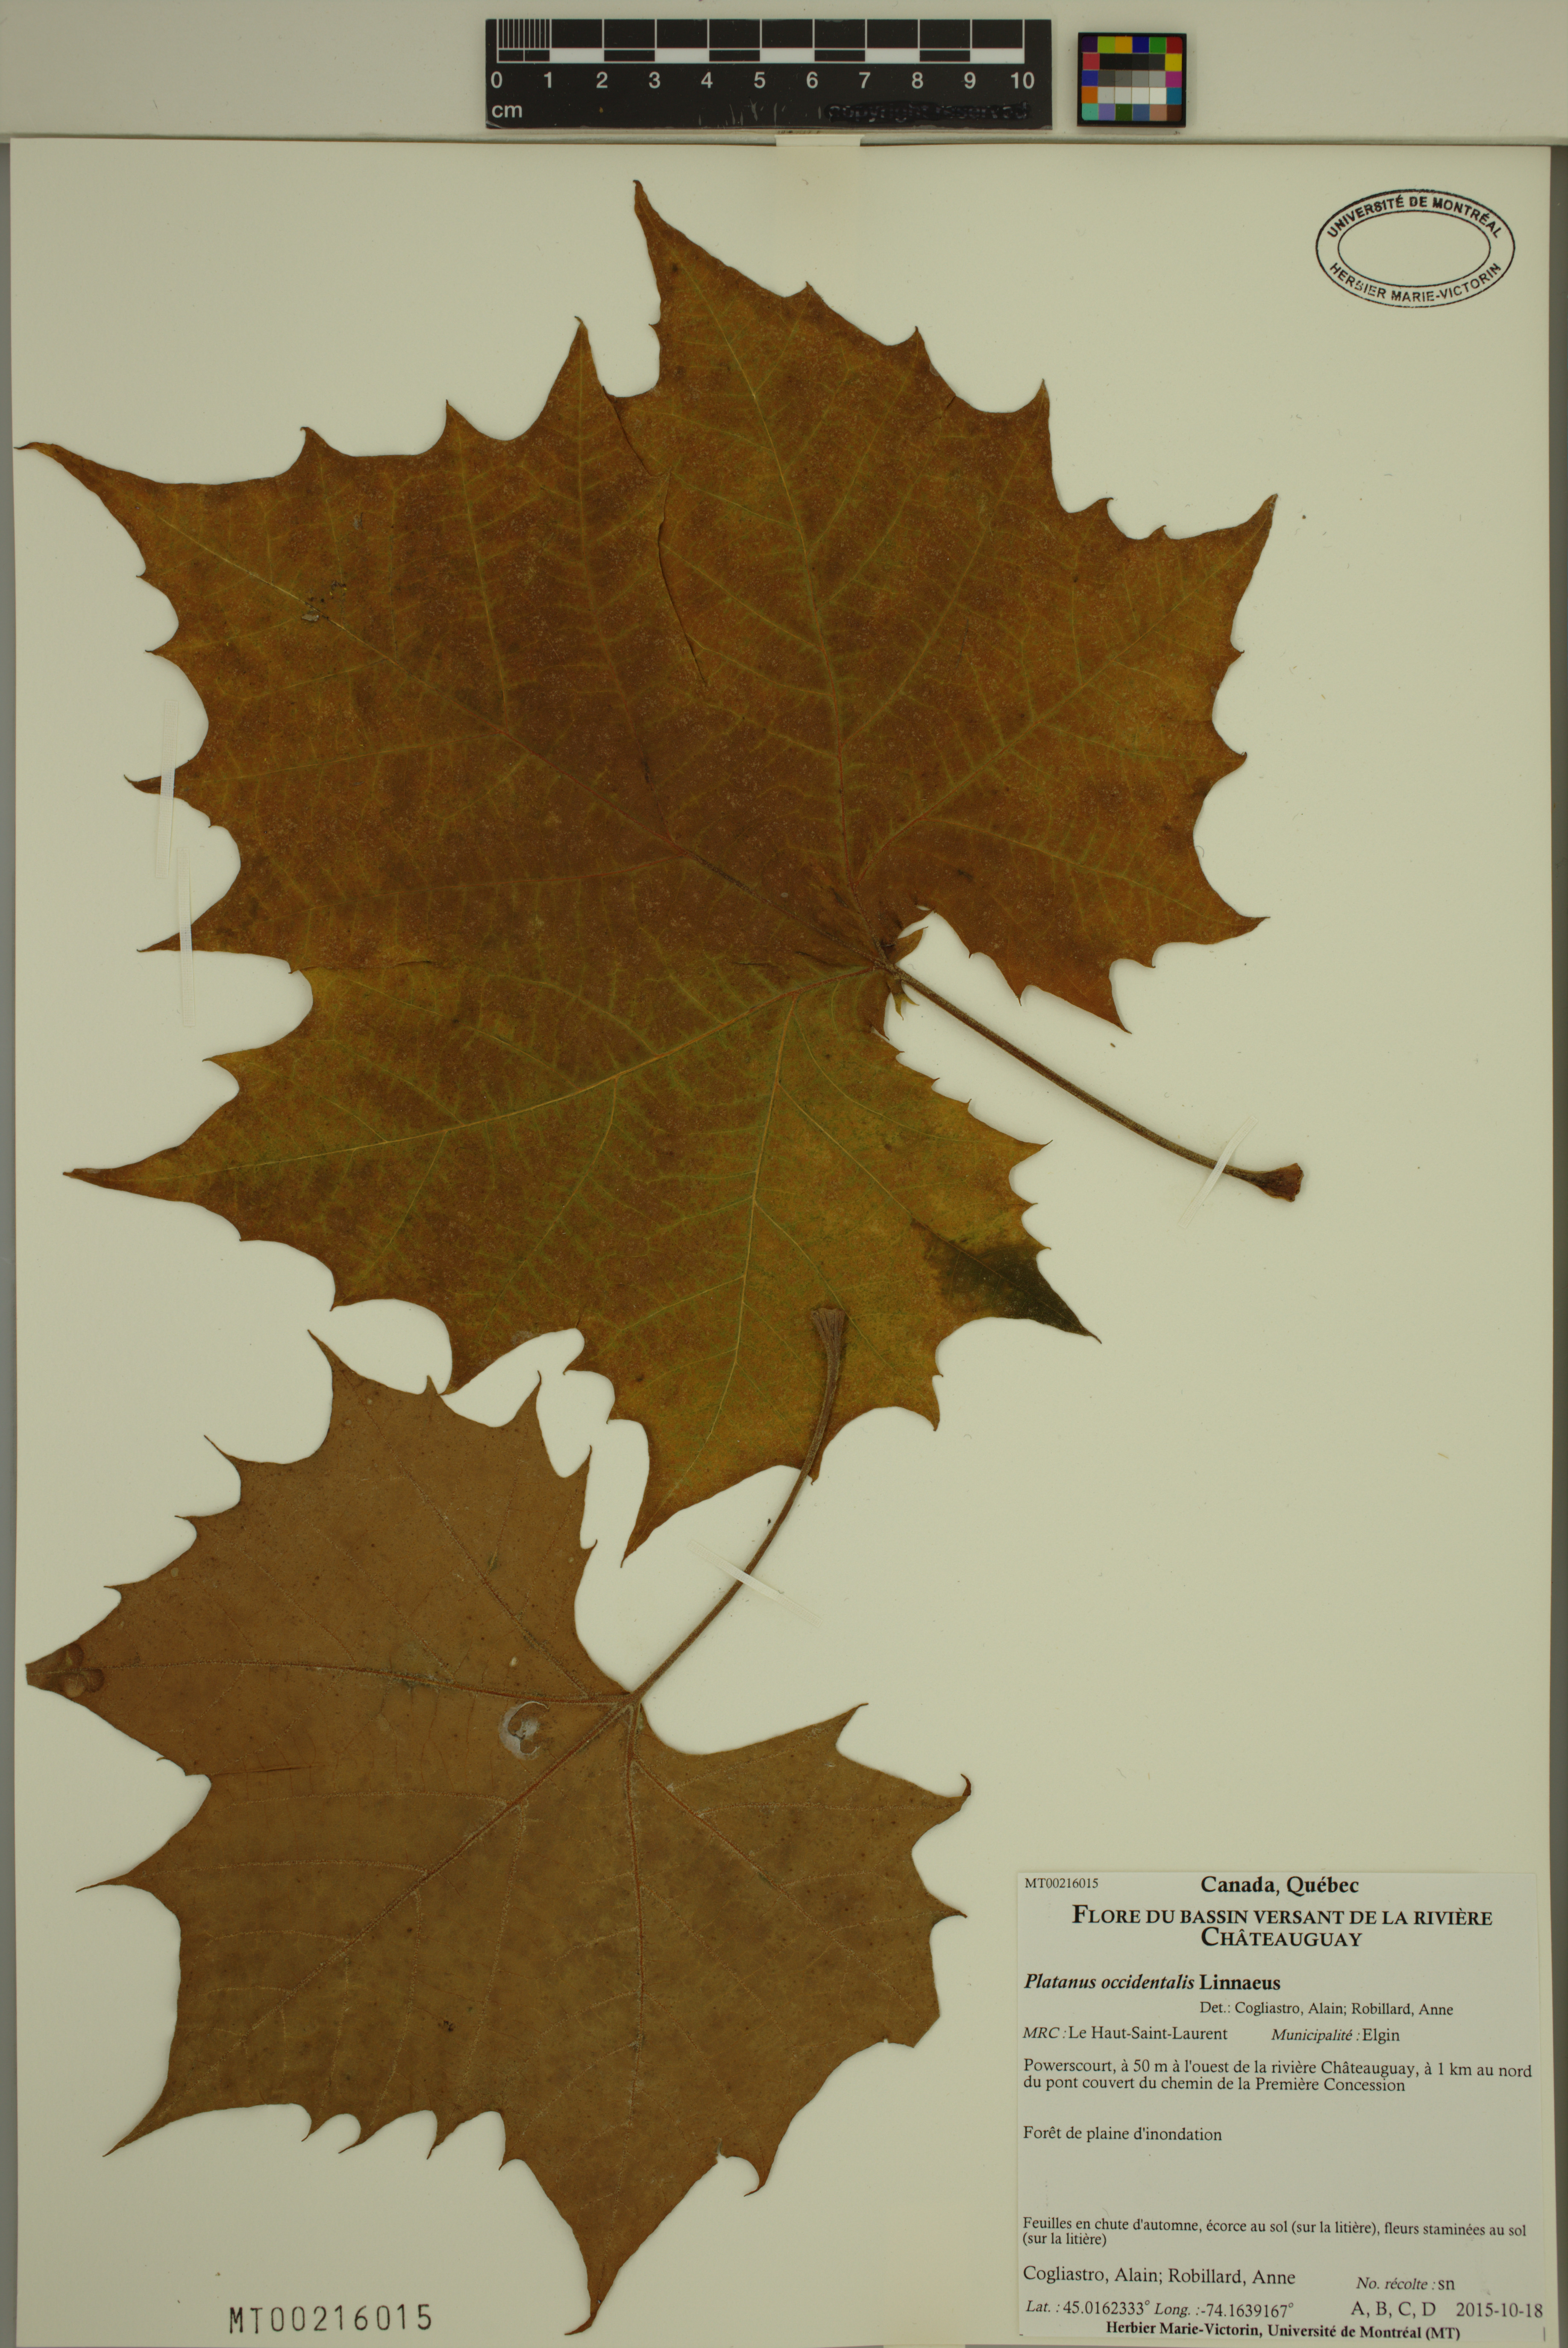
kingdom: Plantae
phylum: Tracheophyta
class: Magnoliopsida
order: Proteales
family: Platanaceae
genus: Platanus
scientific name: Platanus occidentalis
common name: American sycamore
